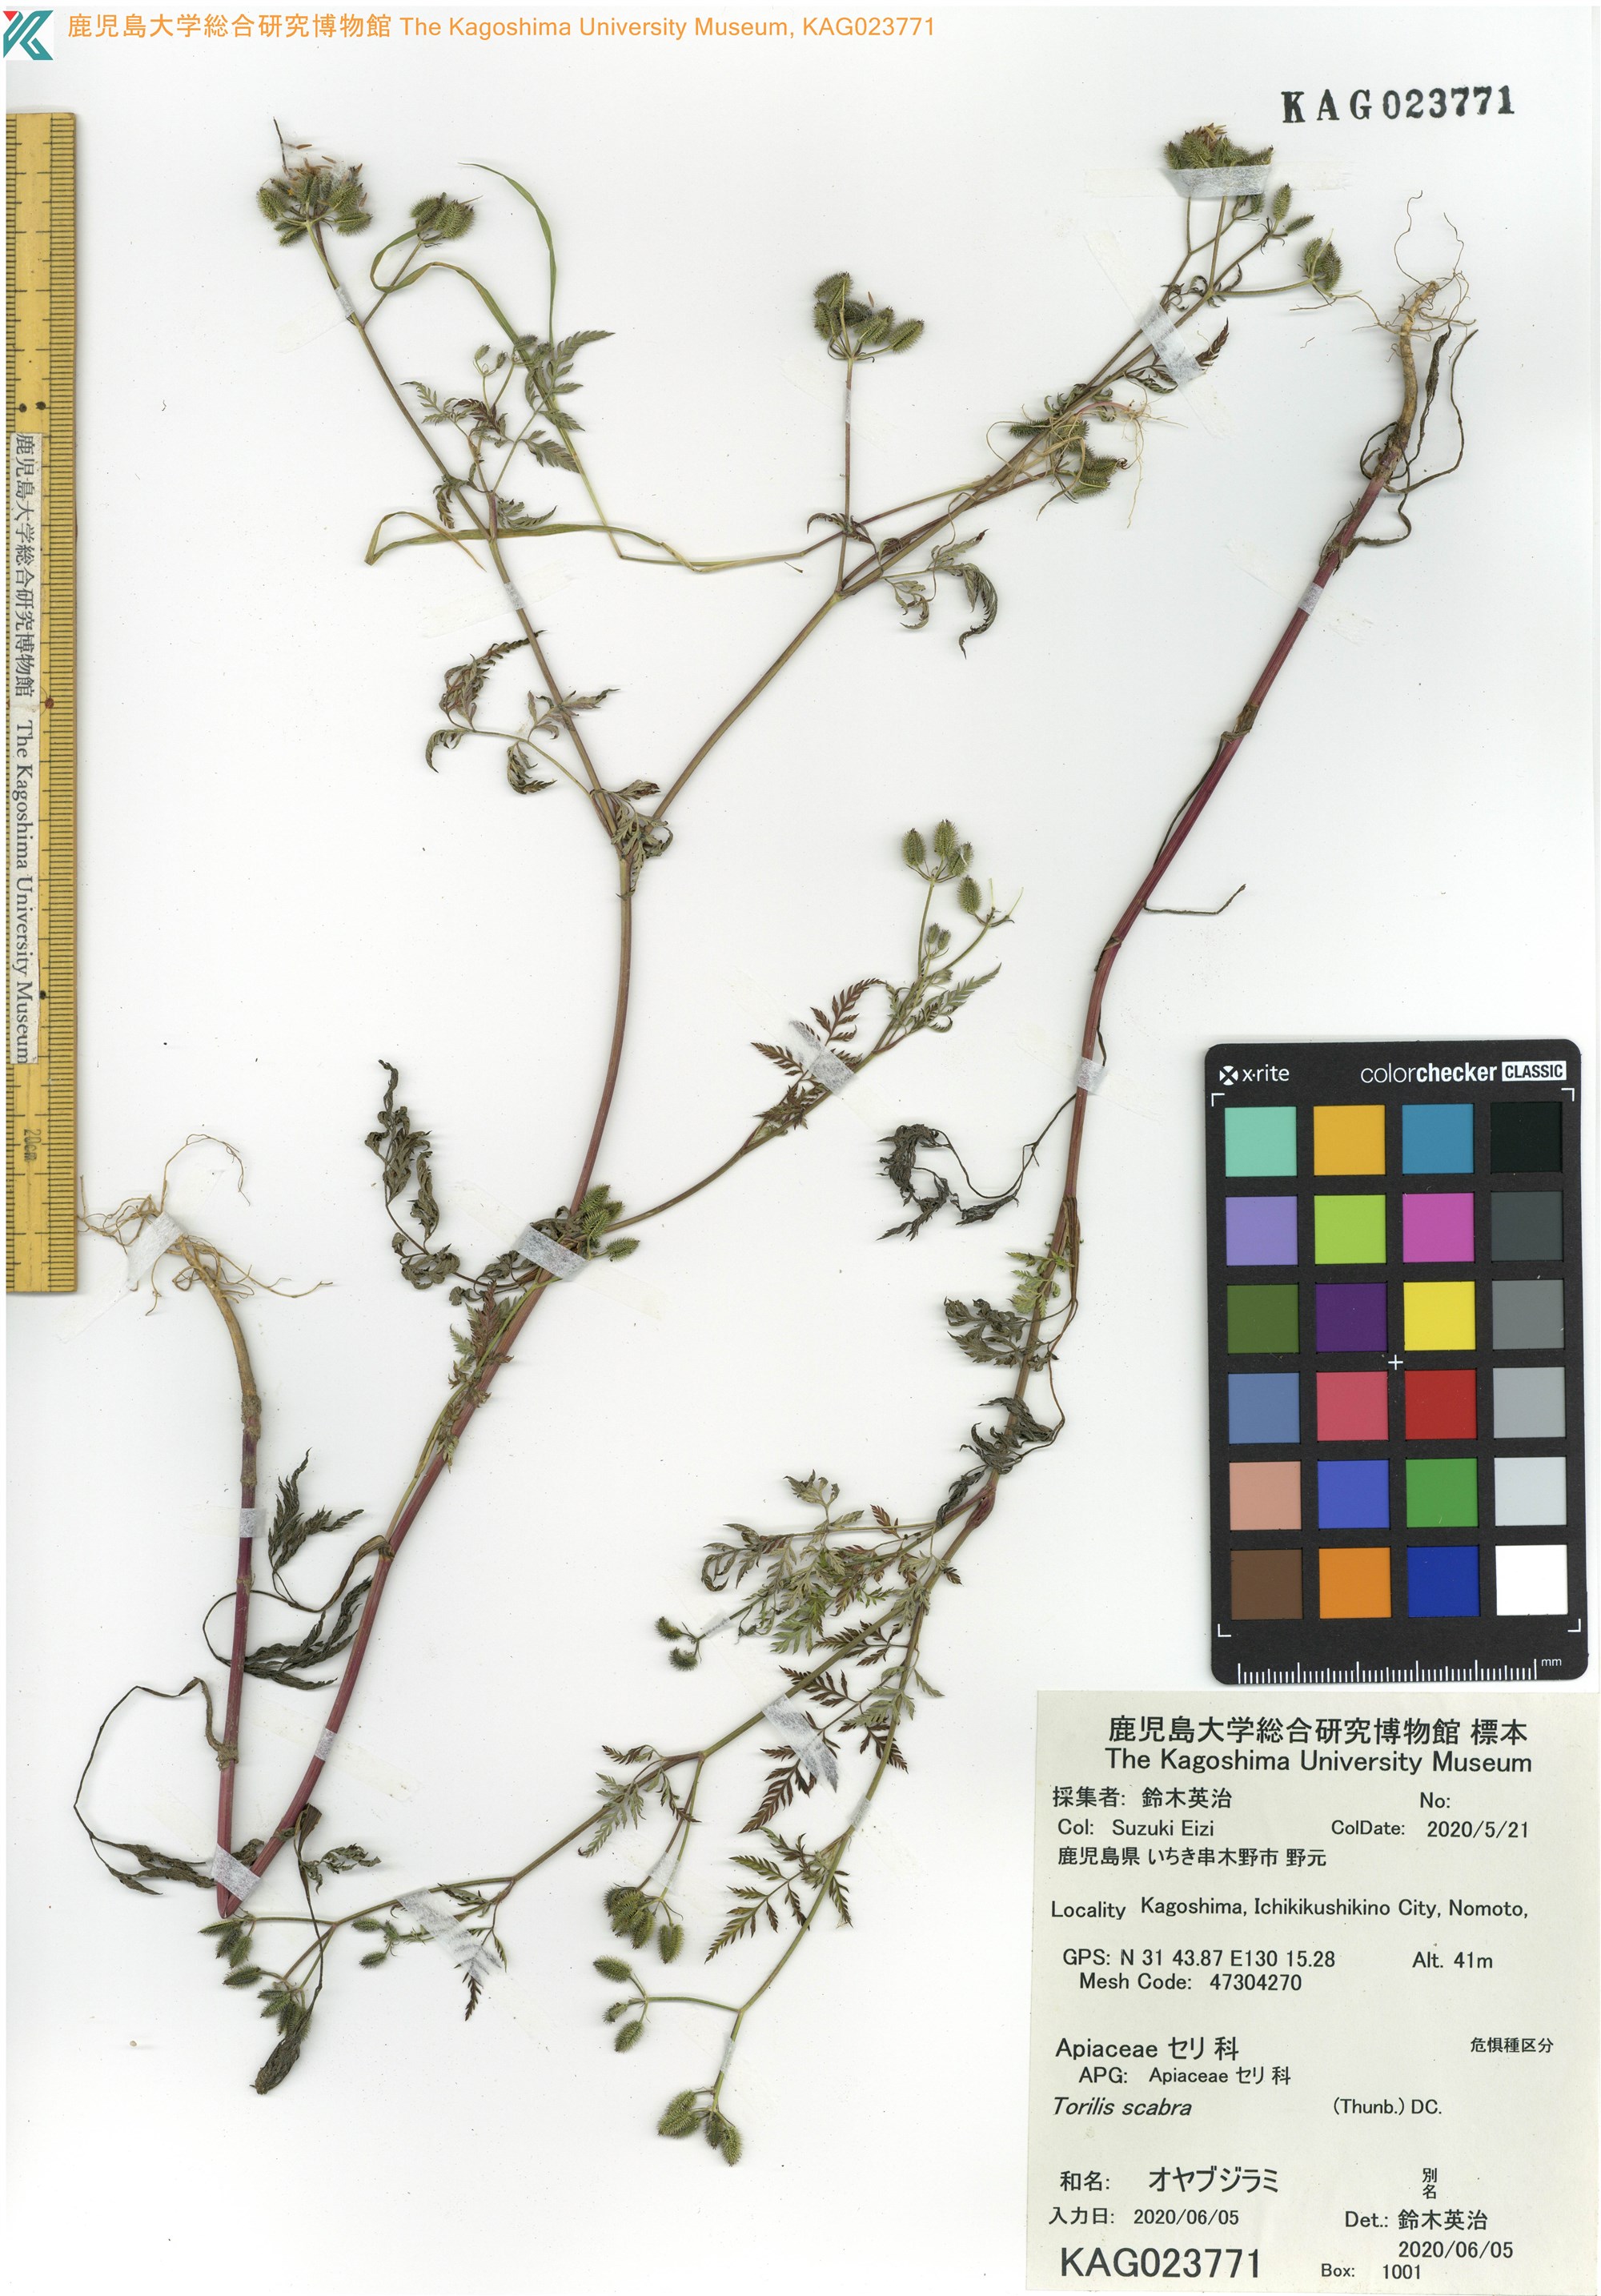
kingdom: Plantae
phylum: Tracheophyta
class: Magnoliopsida
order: Apiales
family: Apiaceae
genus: Torilis
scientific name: Torilis scabra
